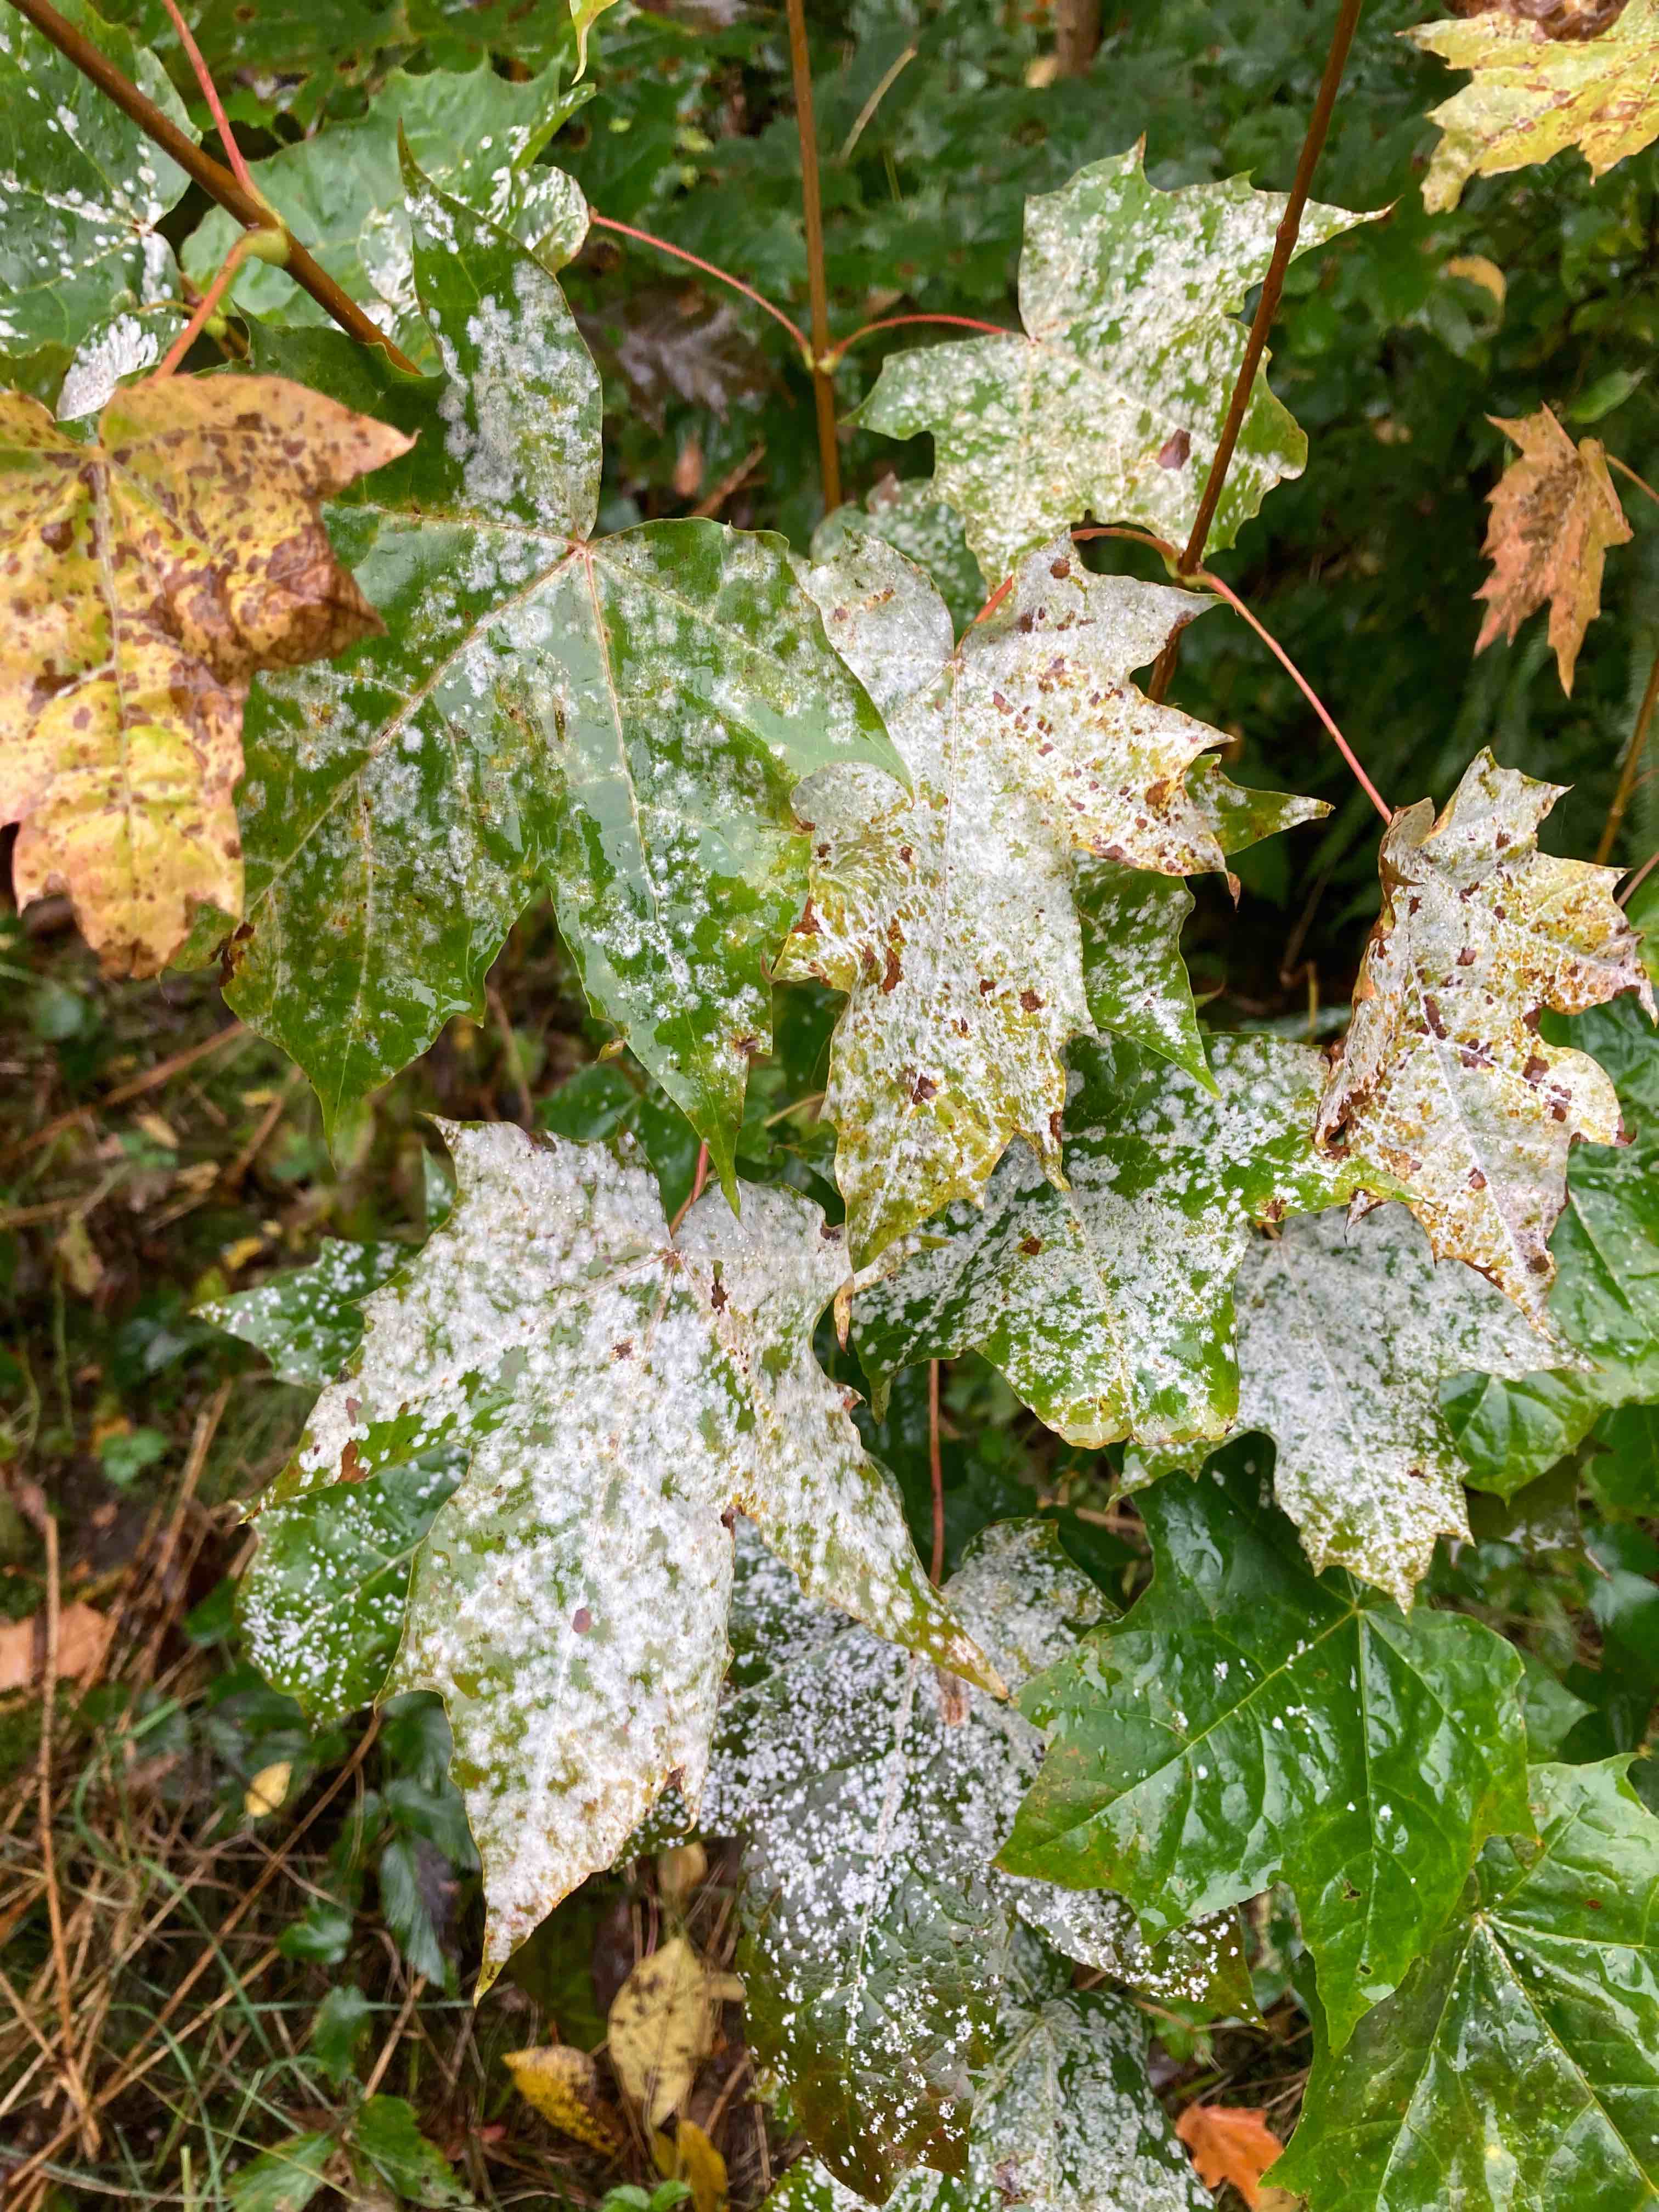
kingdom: Fungi
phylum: Ascomycota
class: Leotiomycetes
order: Helotiales
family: Erysiphaceae
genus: Sawadaea
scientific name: Sawadaea tulasnei
